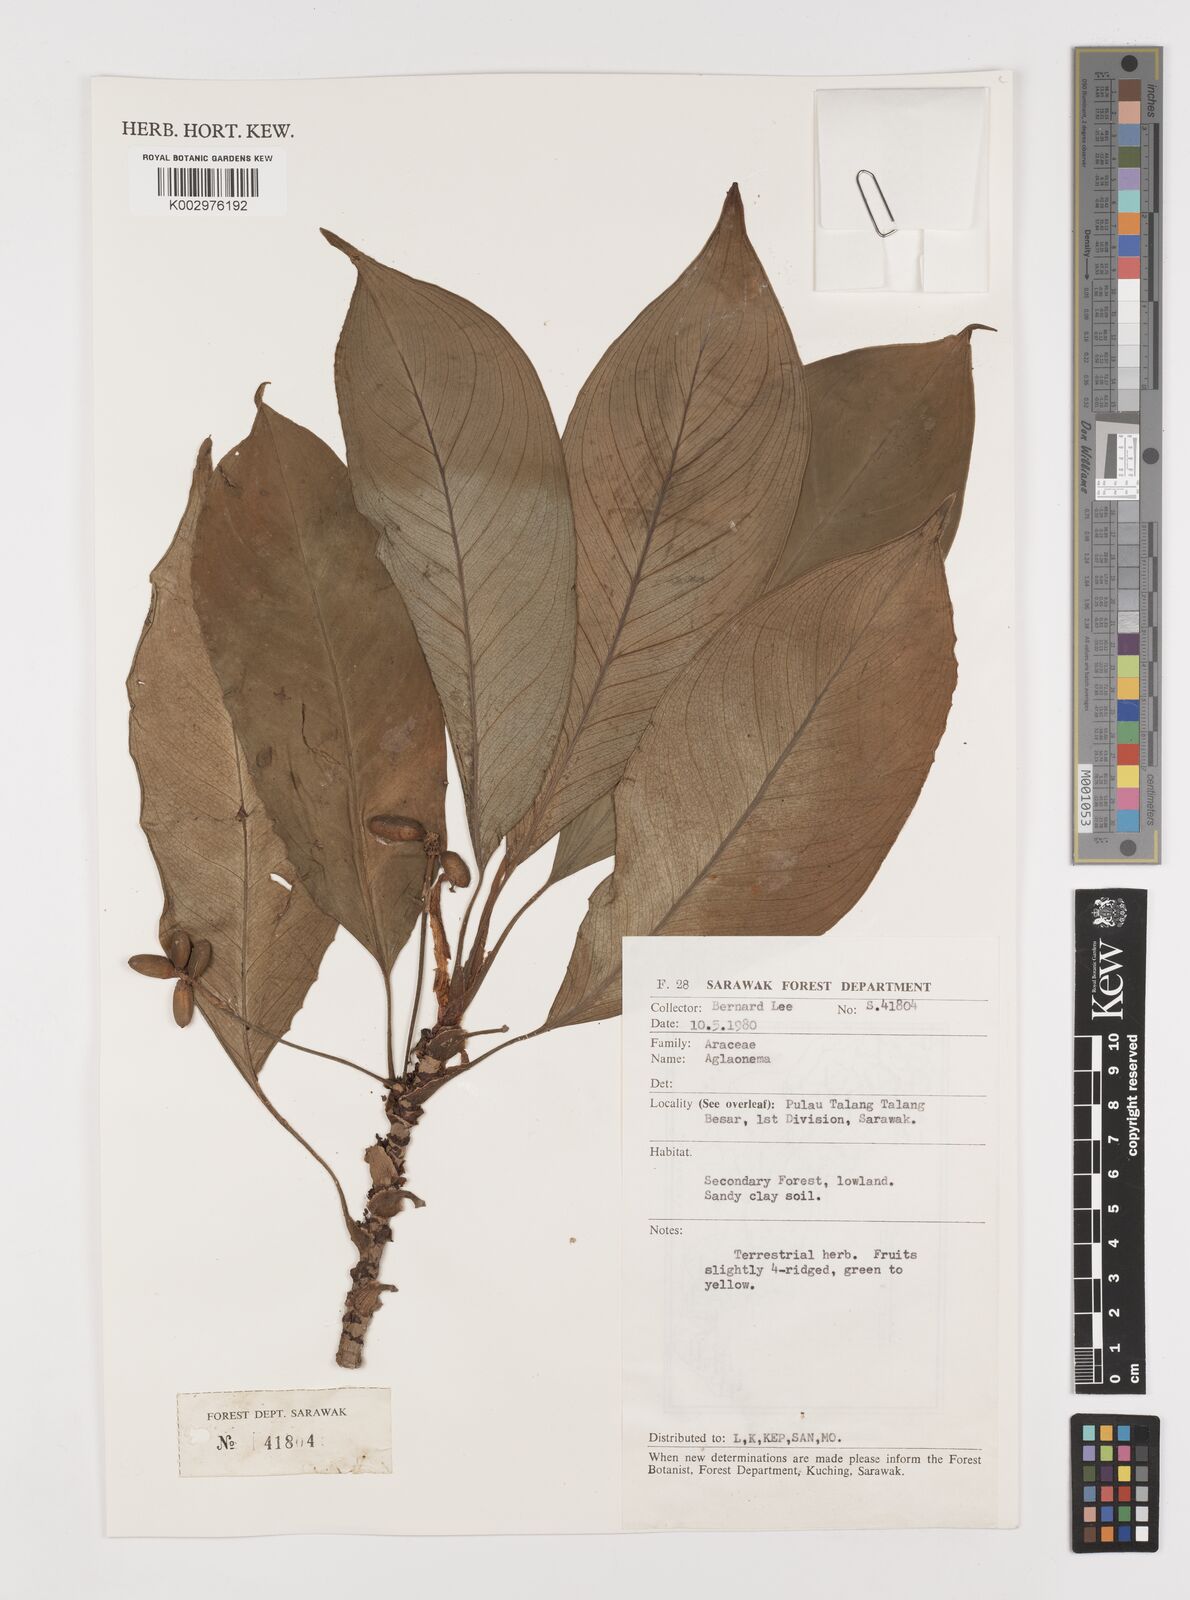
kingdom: Plantae
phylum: Tracheophyta
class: Liliopsida
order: Alismatales
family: Araceae
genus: Aglaonema
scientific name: Aglaonema simplex
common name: Malayan-sword
